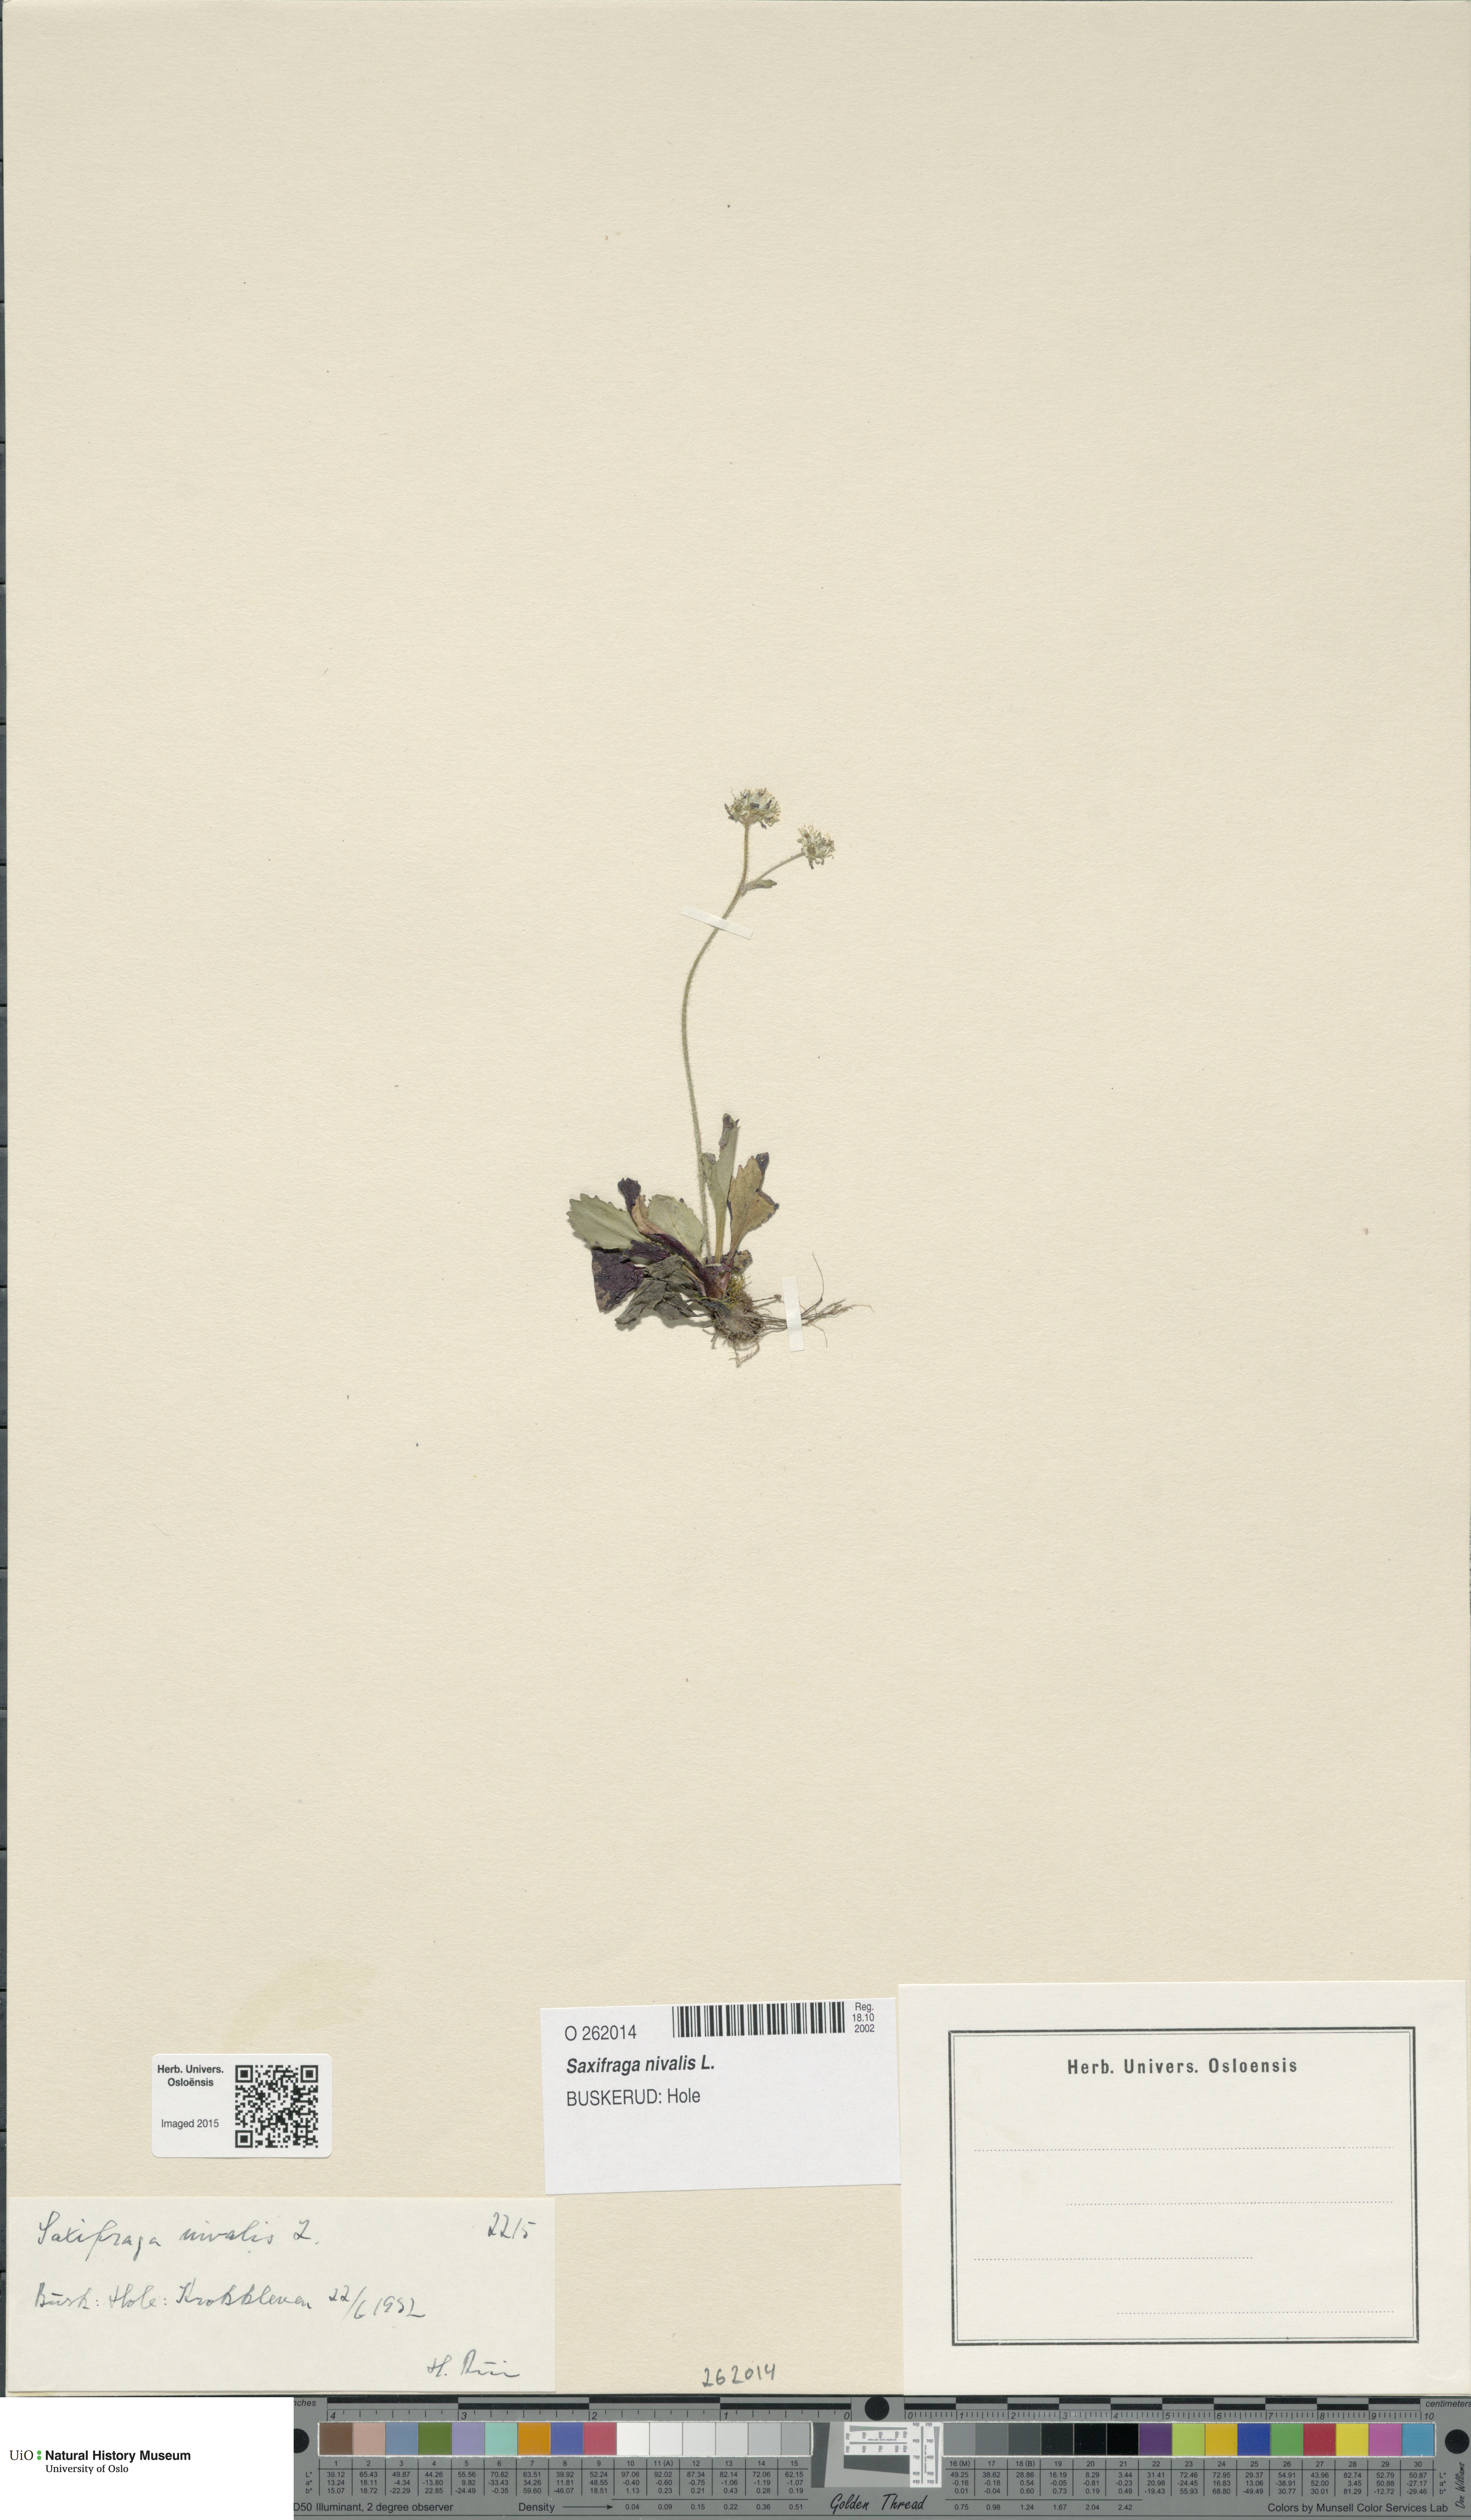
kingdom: Plantae
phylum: Tracheophyta
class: Magnoliopsida
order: Saxifragales
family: Saxifragaceae
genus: Micranthes
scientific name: Micranthes nivalis
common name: Alpine saxifrage
